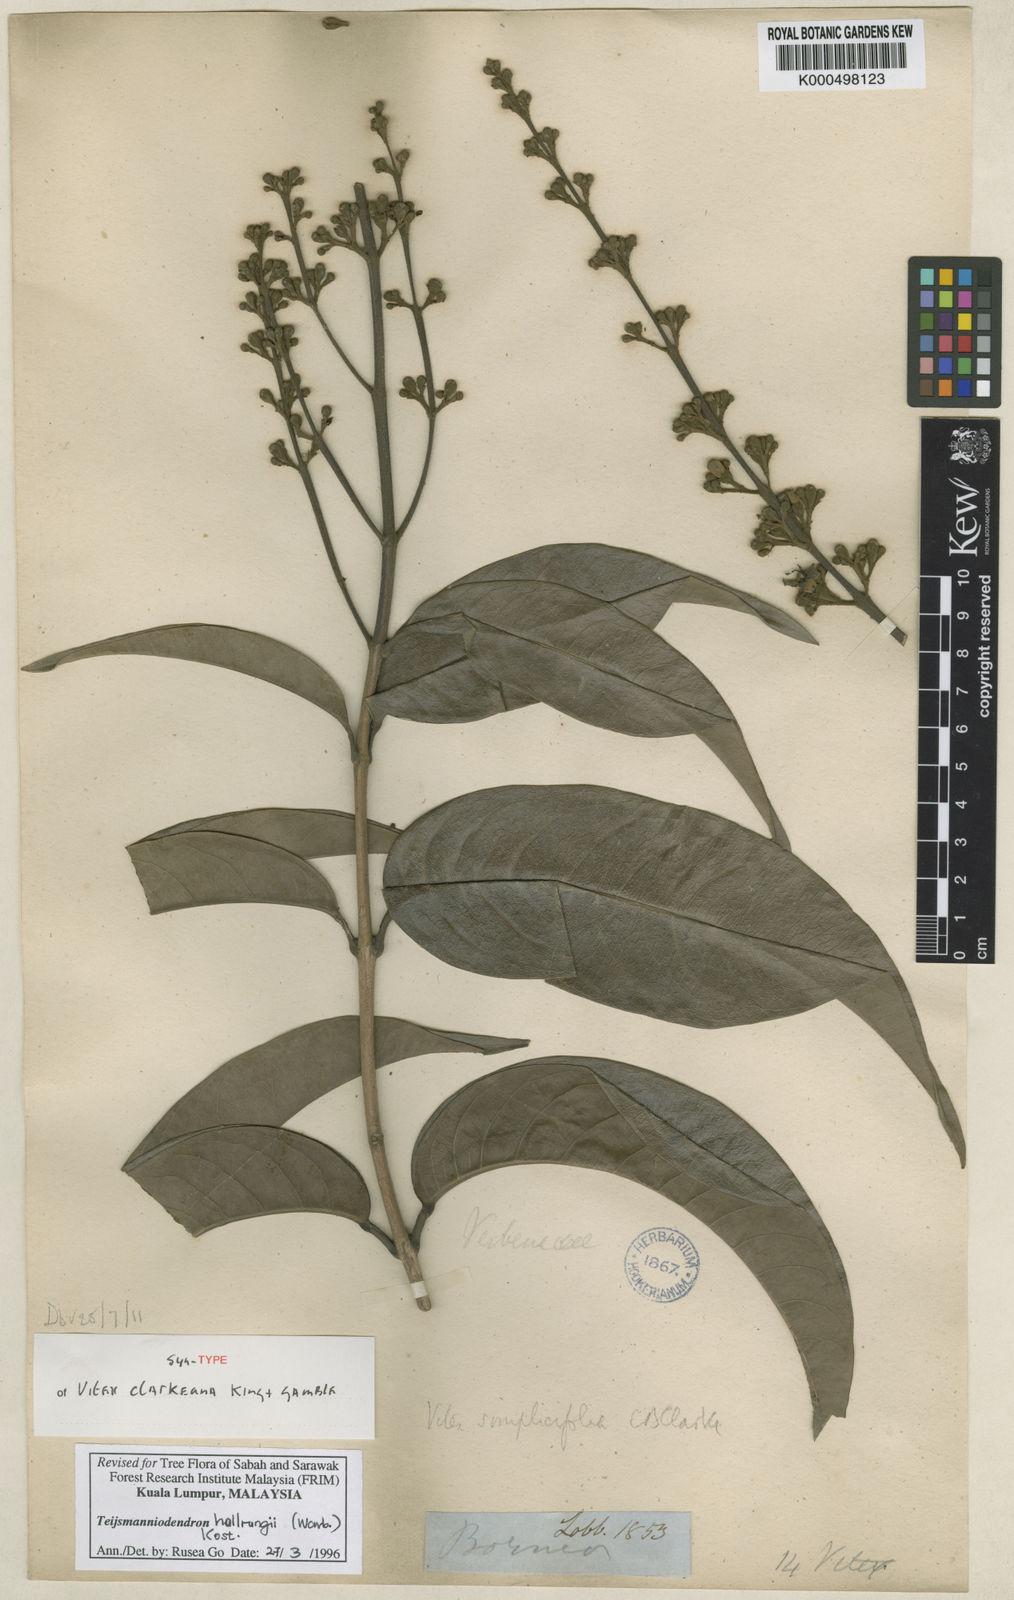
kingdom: Plantae
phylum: Tracheophyta
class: Magnoliopsida
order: Lamiales
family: Lamiaceae
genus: Teijsmanniodendron
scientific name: Teijsmanniodendron hollrungii
